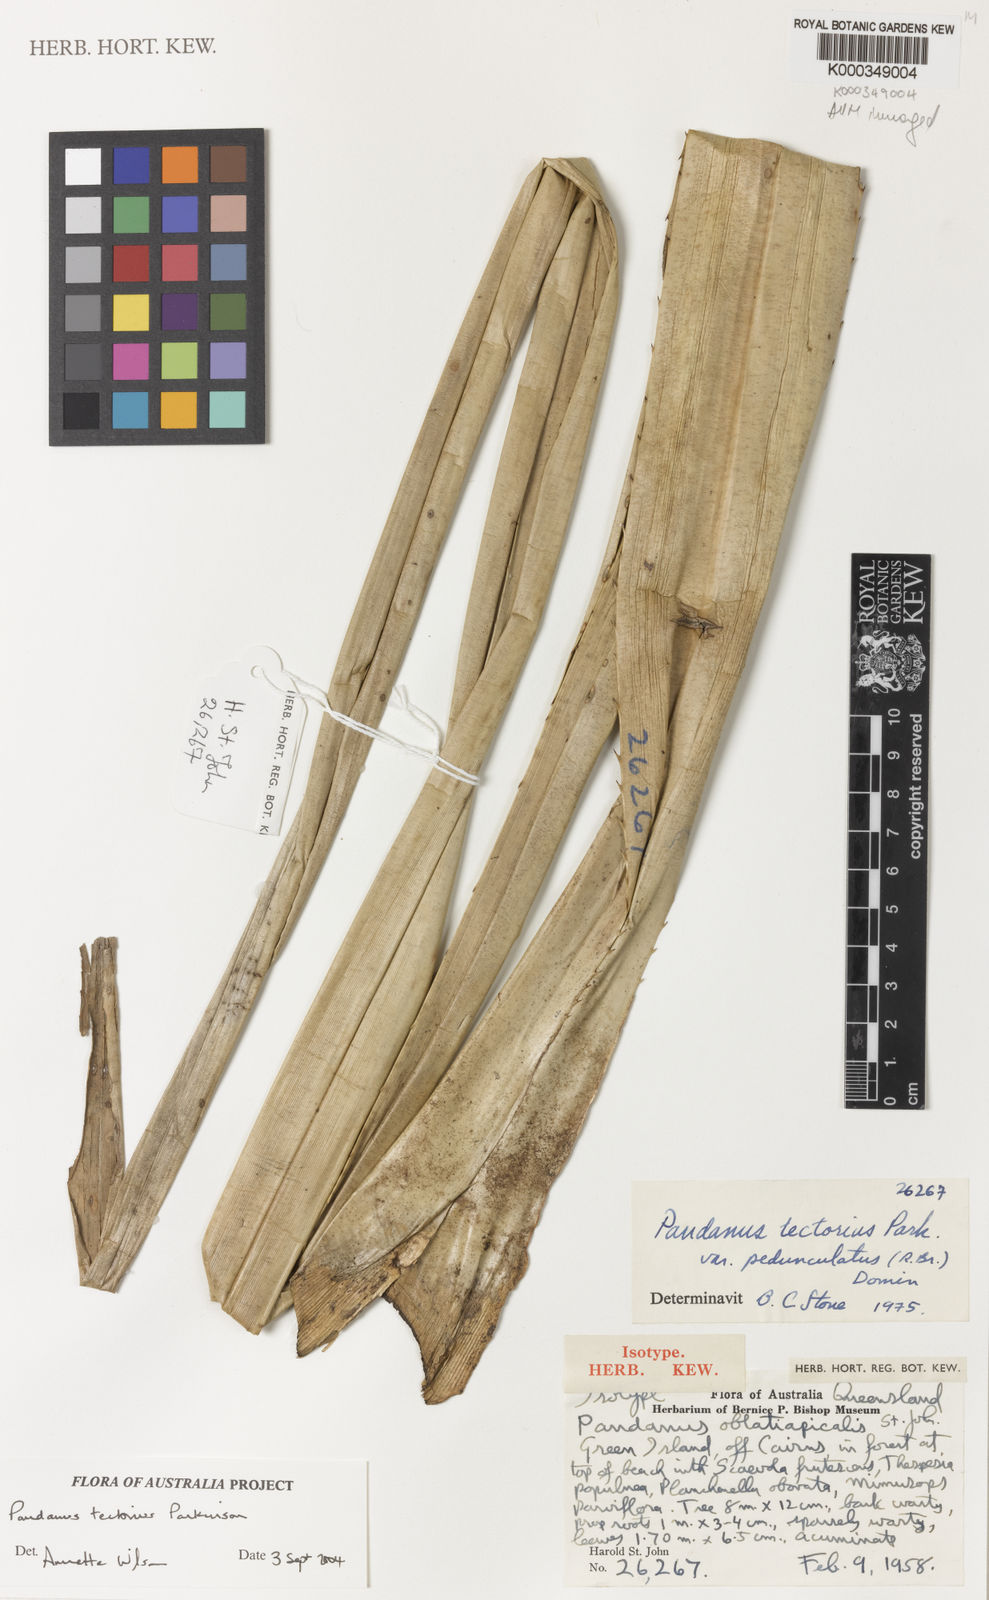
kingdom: Plantae
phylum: Tracheophyta
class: Liliopsida
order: Pandanales
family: Pandanaceae
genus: Pandanus
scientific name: Pandanus
